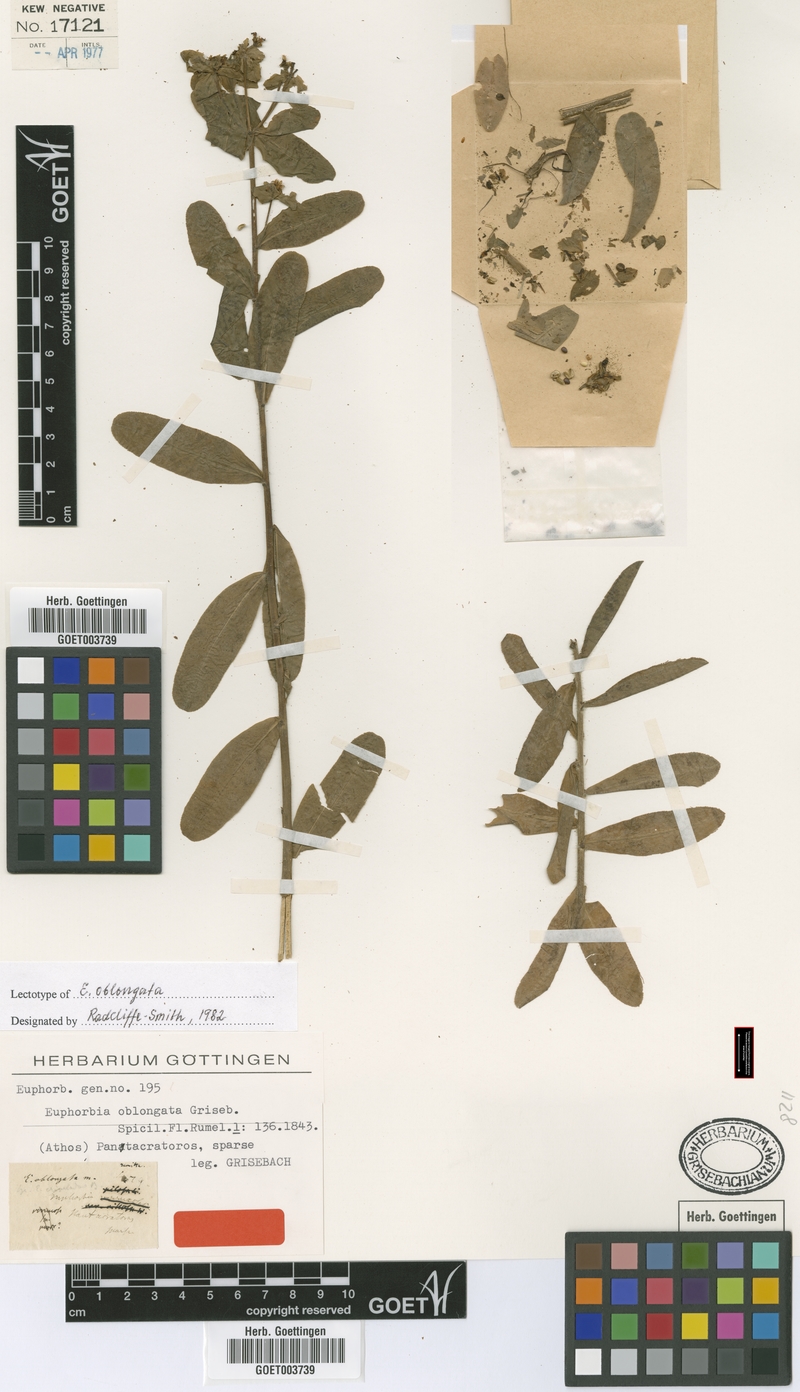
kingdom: Plantae
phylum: Tracheophyta
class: Magnoliopsida
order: Malpighiales
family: Euphorbiaceae
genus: Euphorbia
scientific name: Euphorbia oblongata
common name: Balkan spurge
